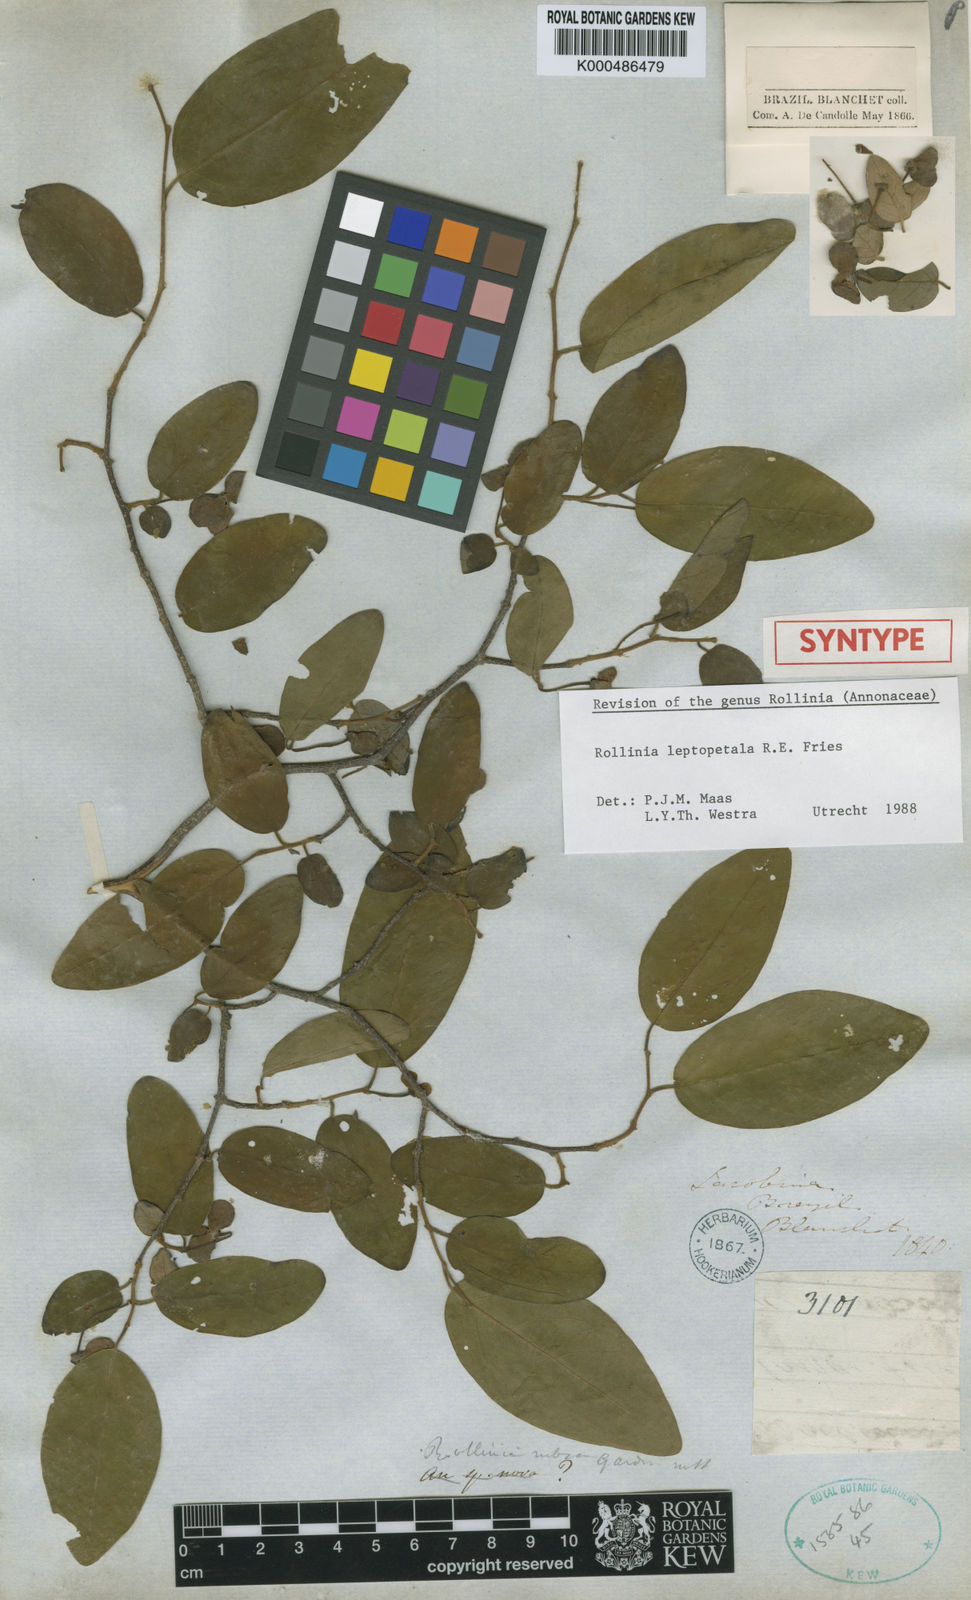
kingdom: Plantae
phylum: Tracheophyta
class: Magnoliopsida
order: Magnoliales
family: Annonaceae
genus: Annona
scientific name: Annona leptopetala
